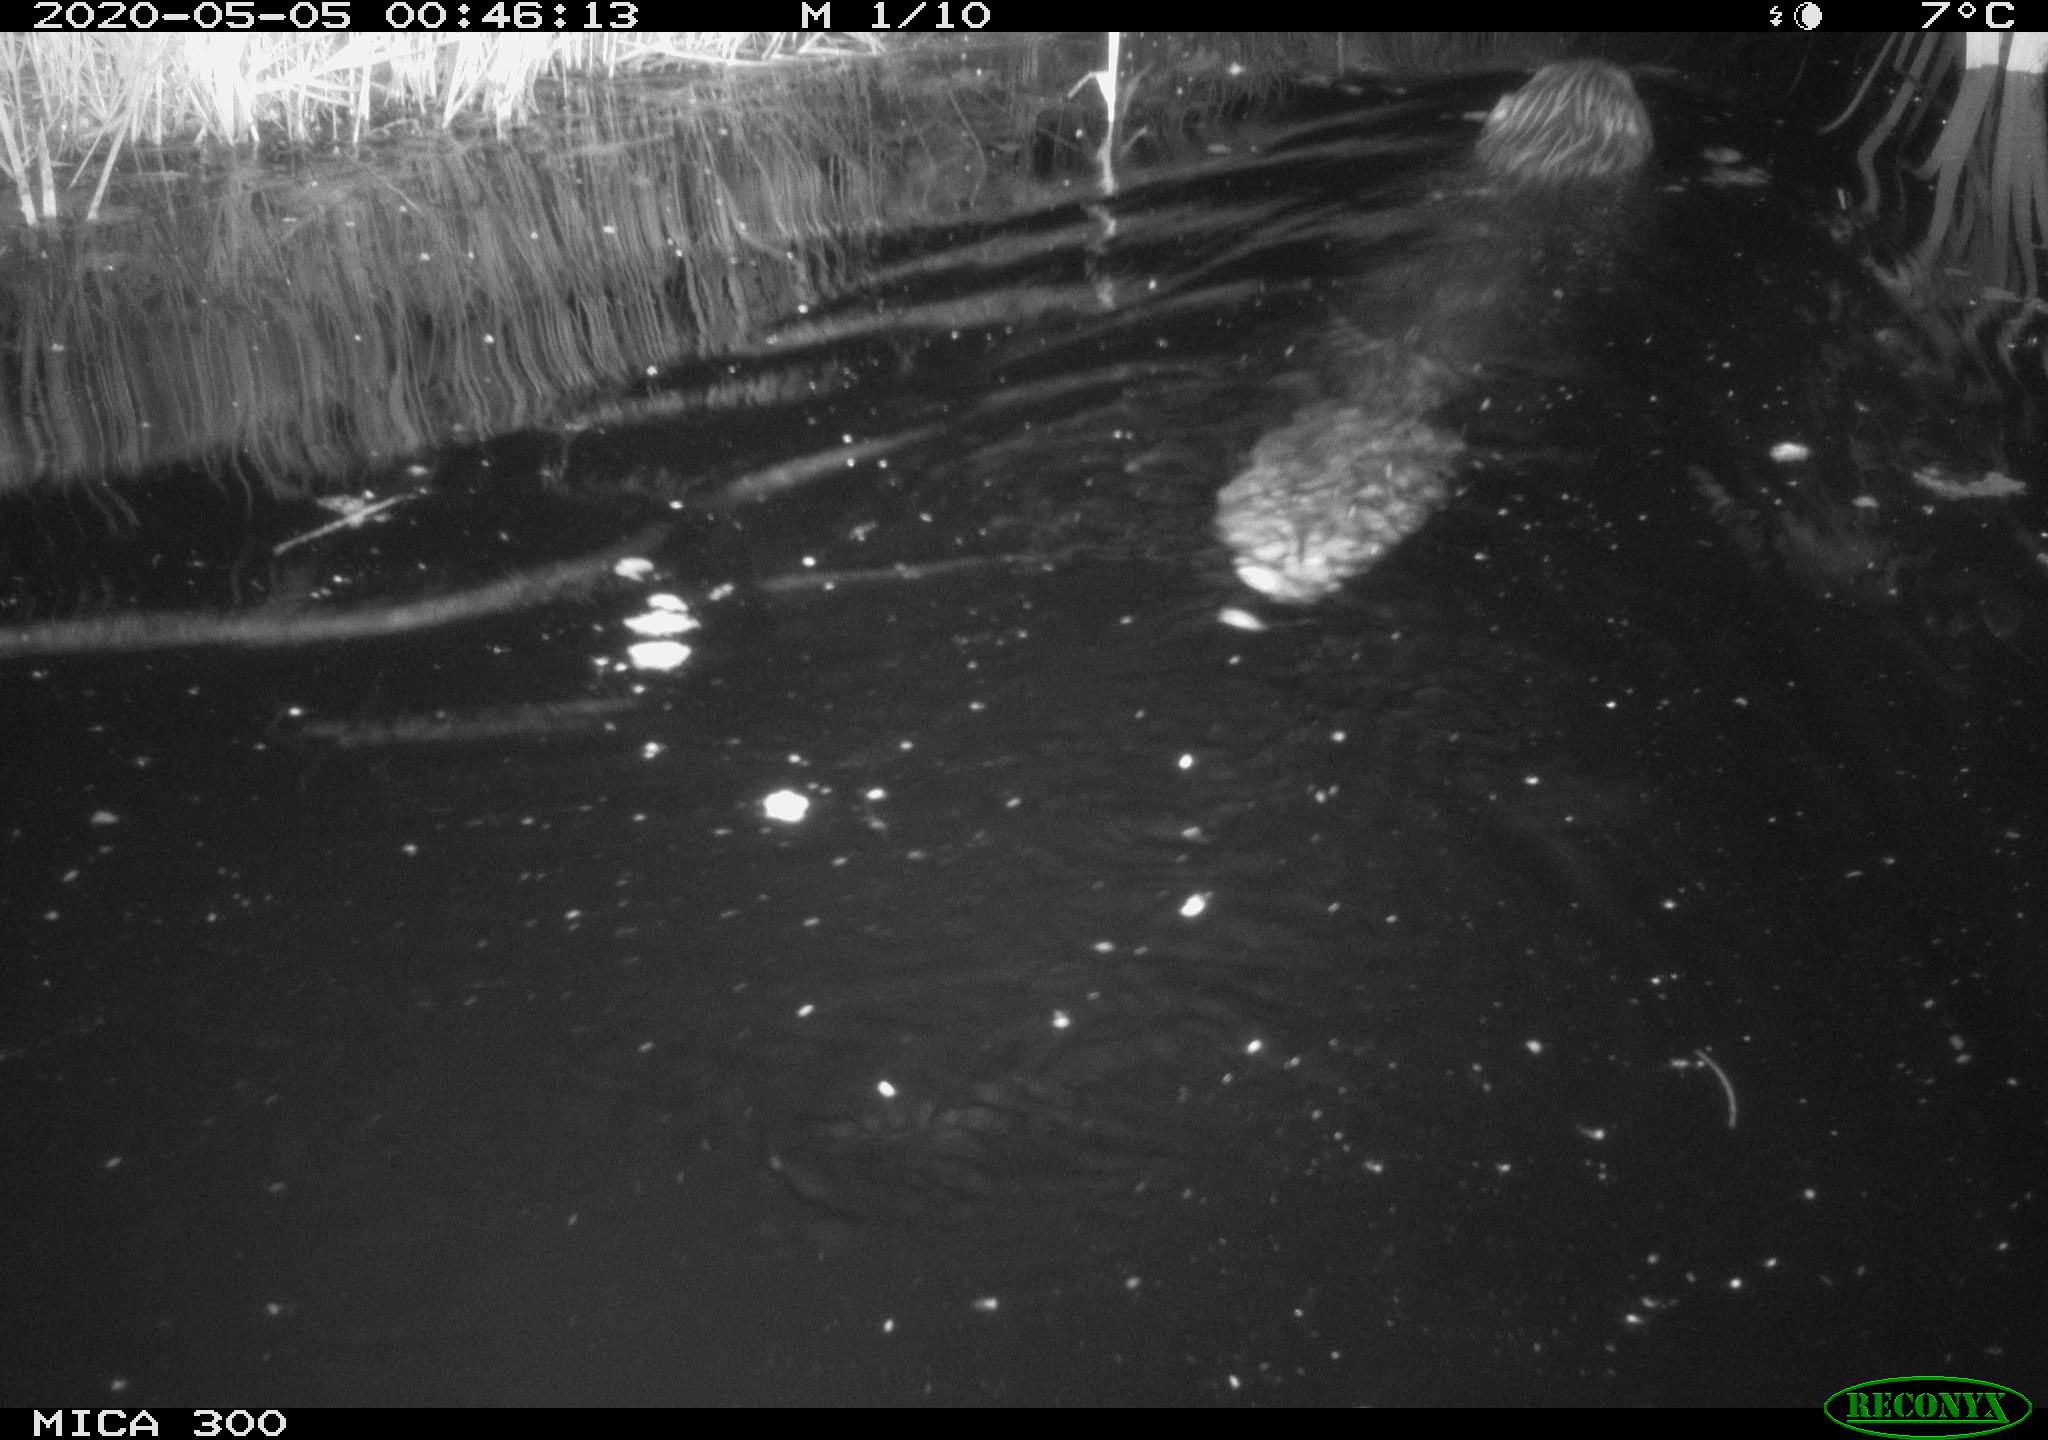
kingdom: Animalia
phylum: Chordata
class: Mammalia
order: Rodentia
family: Castoridae
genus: Castor
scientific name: Castor fiber
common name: Eurasian beaver
